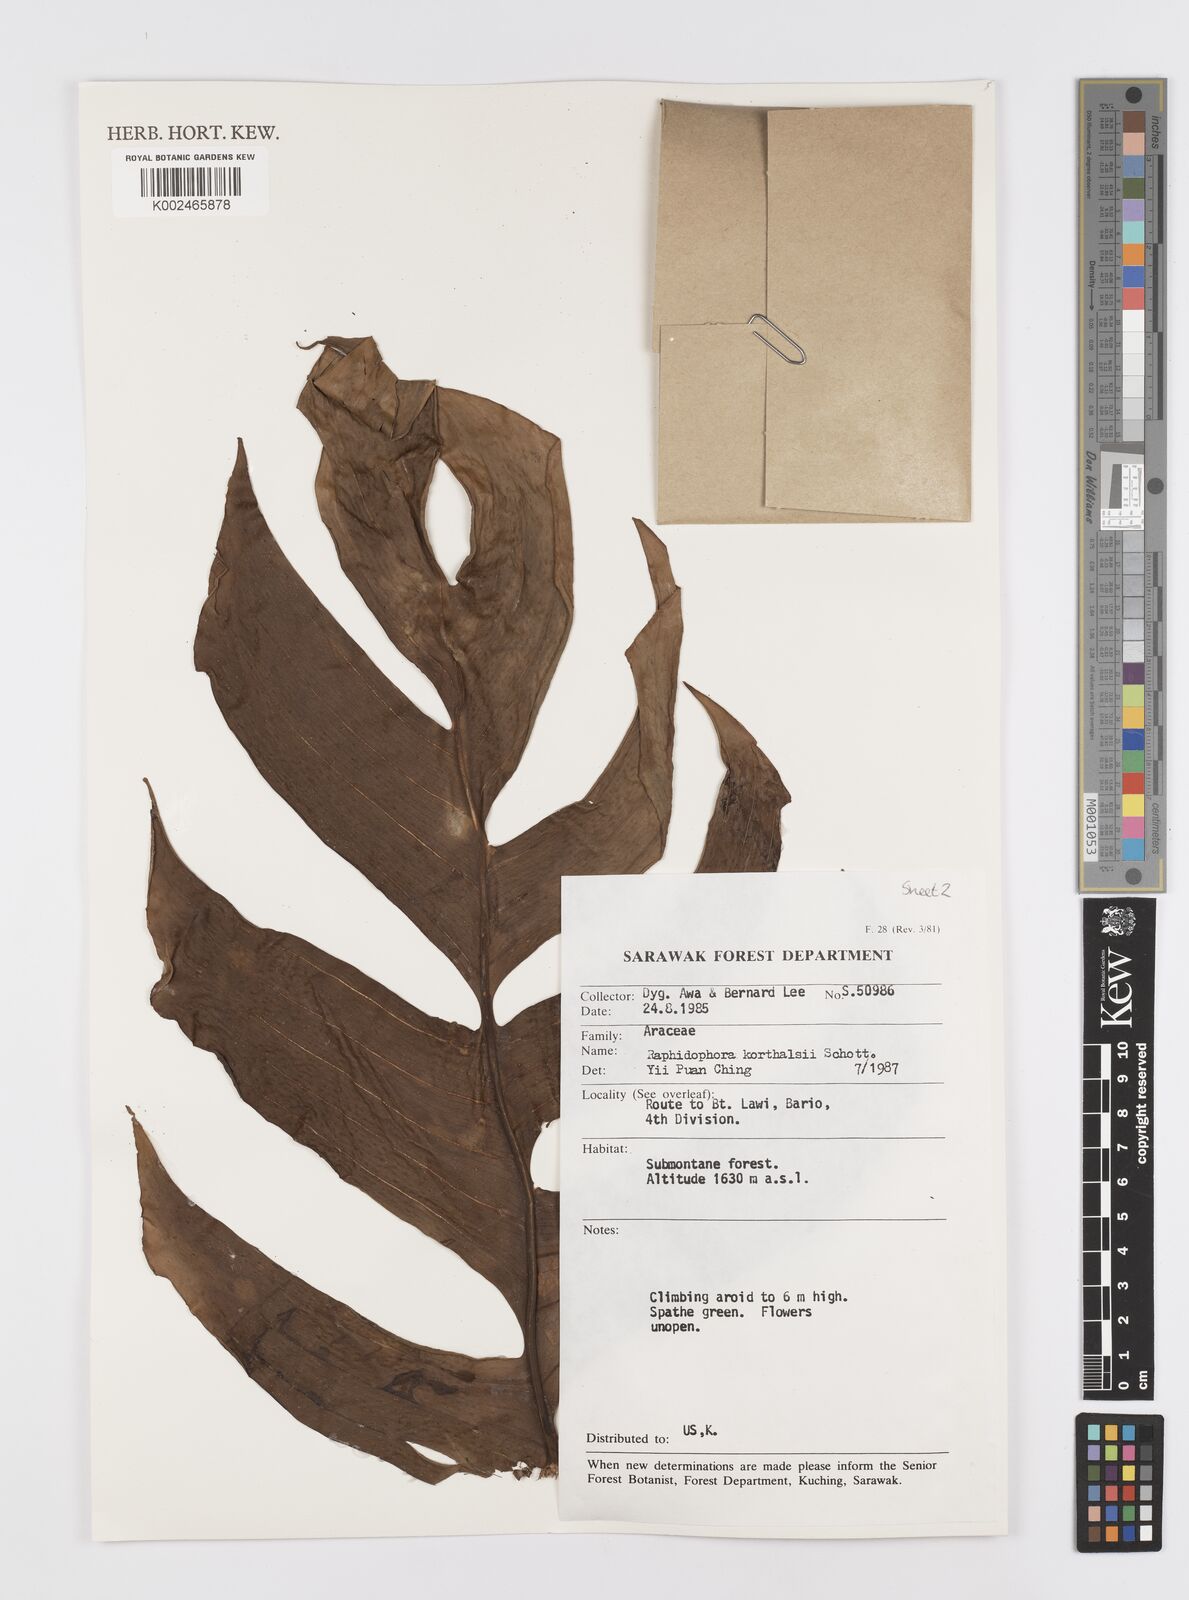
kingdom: Plantae
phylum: Tracheophyta
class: Liliopsida
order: Alismatales
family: Araceae
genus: Rhaphidophora
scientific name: Rhaphidophora korthalsii
